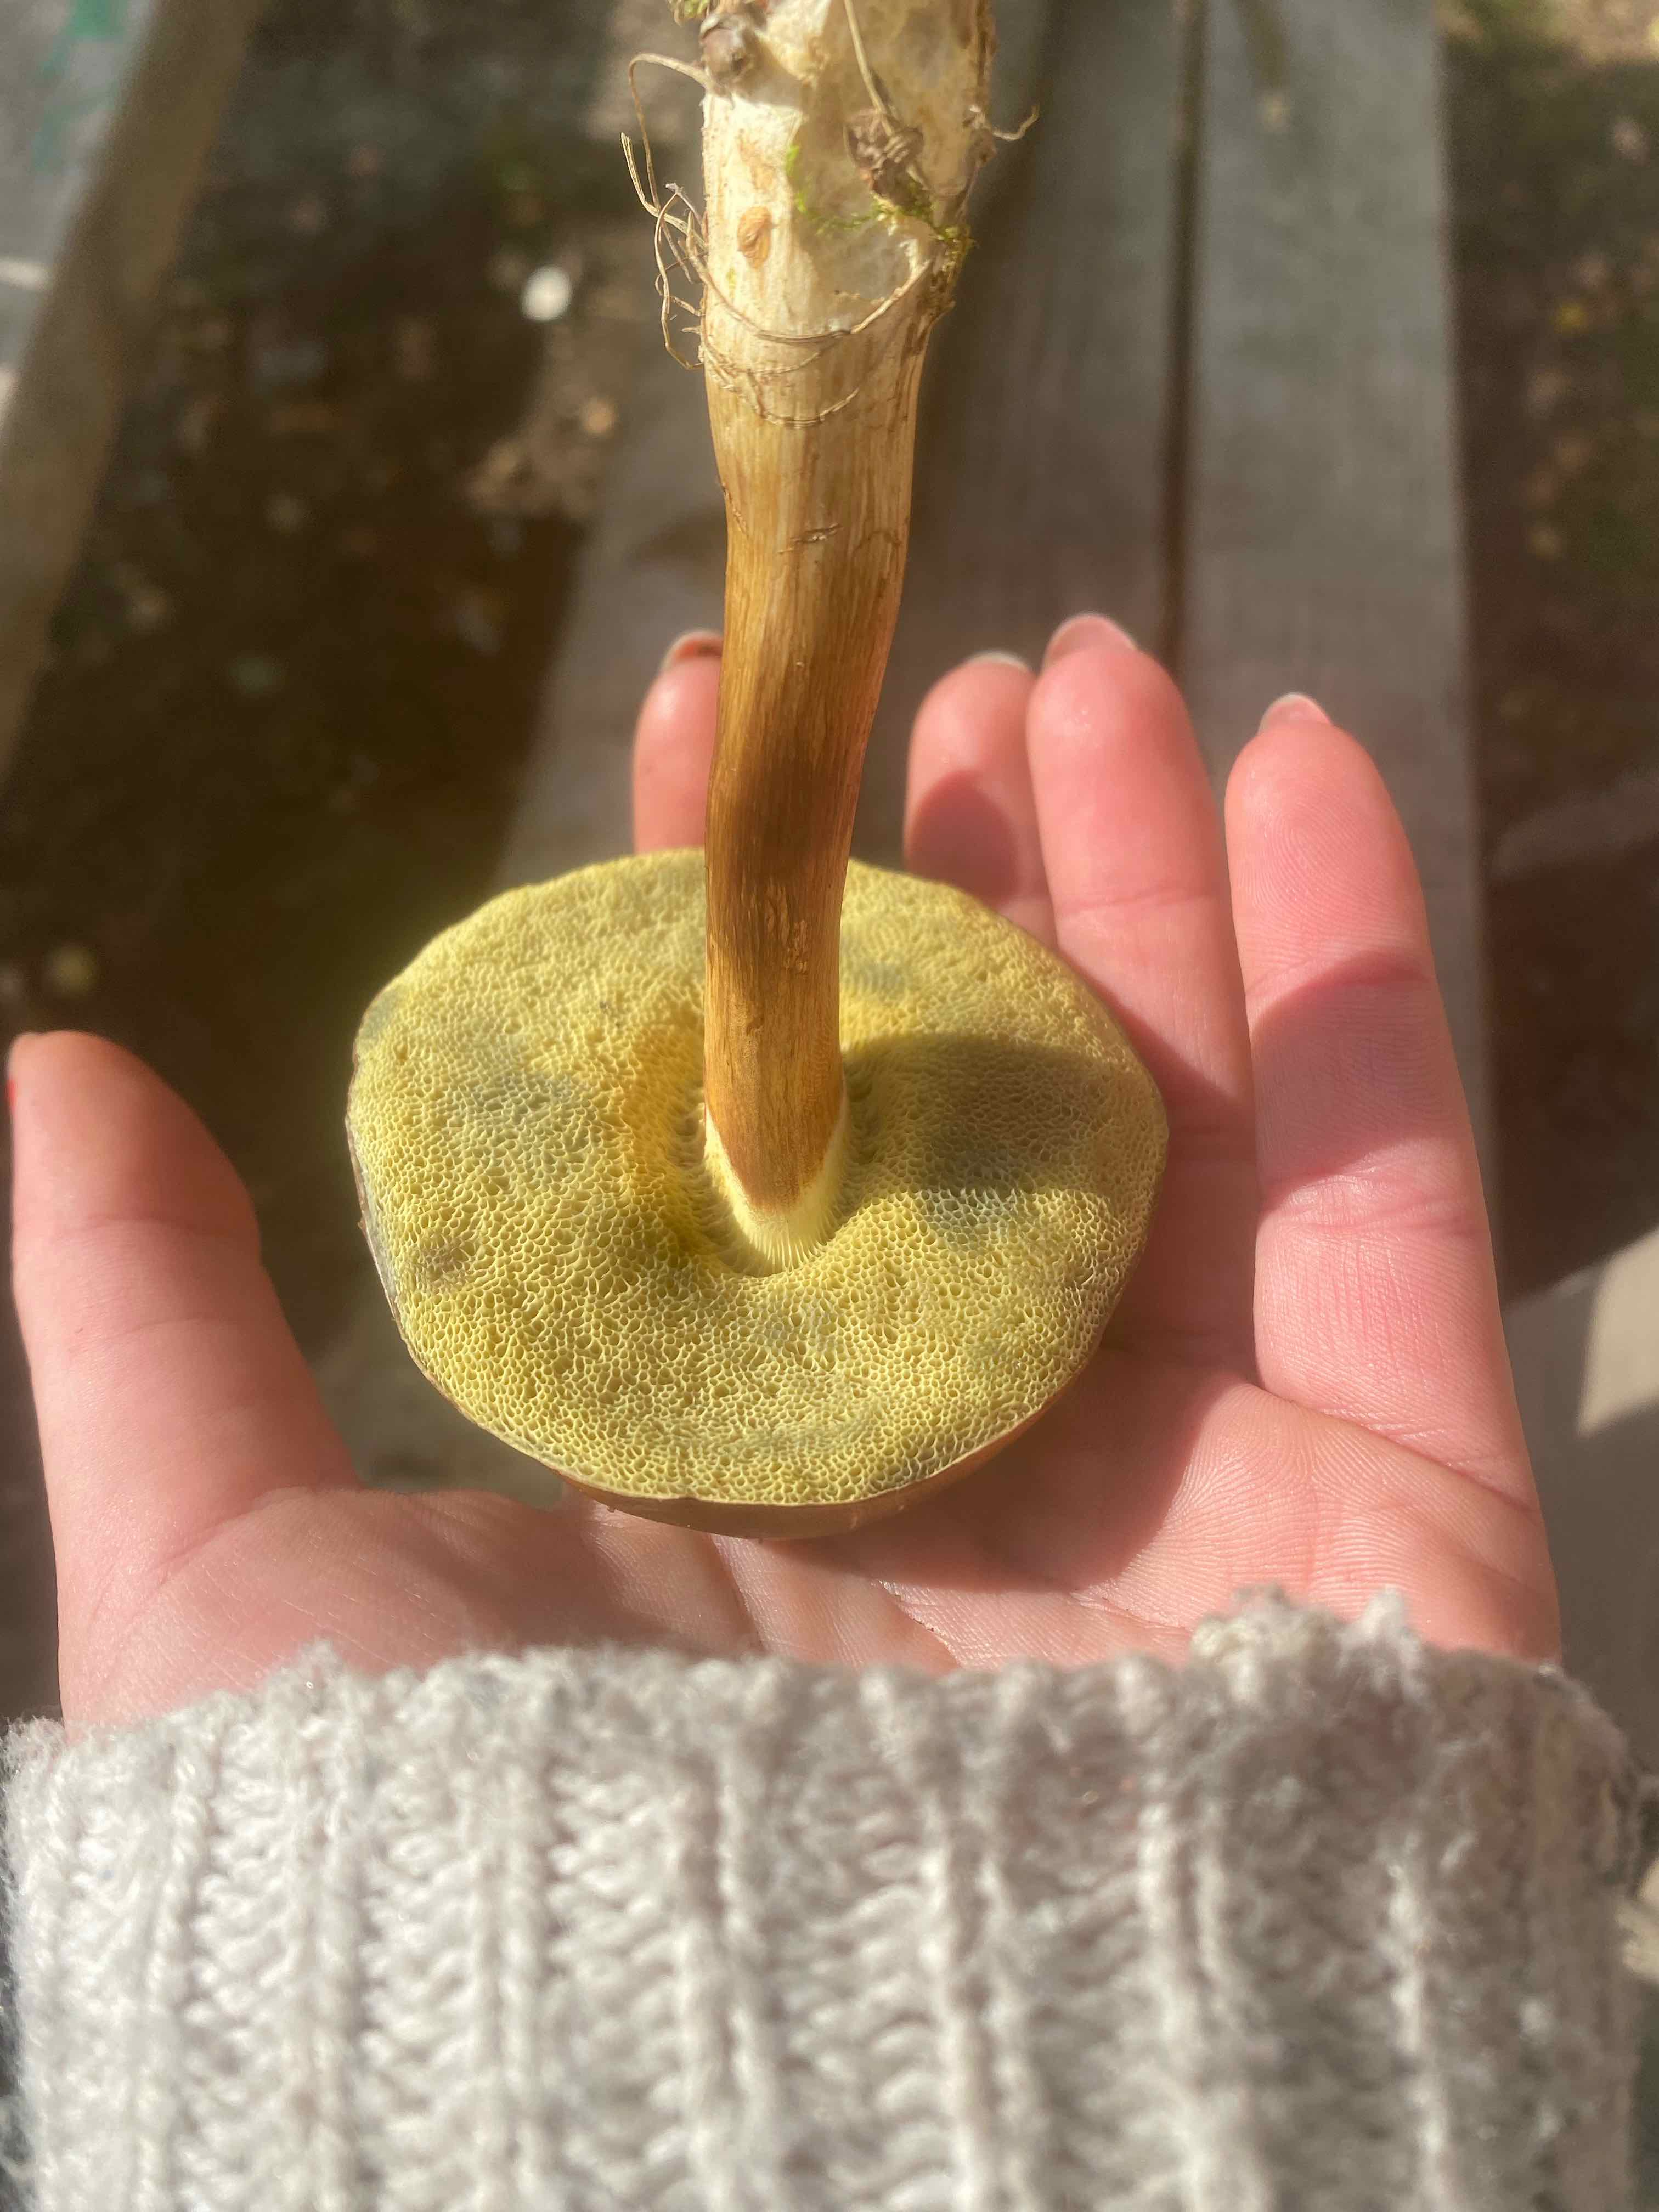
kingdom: Fungi
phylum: Basidiomycota
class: Agaricomycetes
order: Boletales
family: Boletaceae
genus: Imleria
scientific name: Imleria badia
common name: brunstokket rørhat
